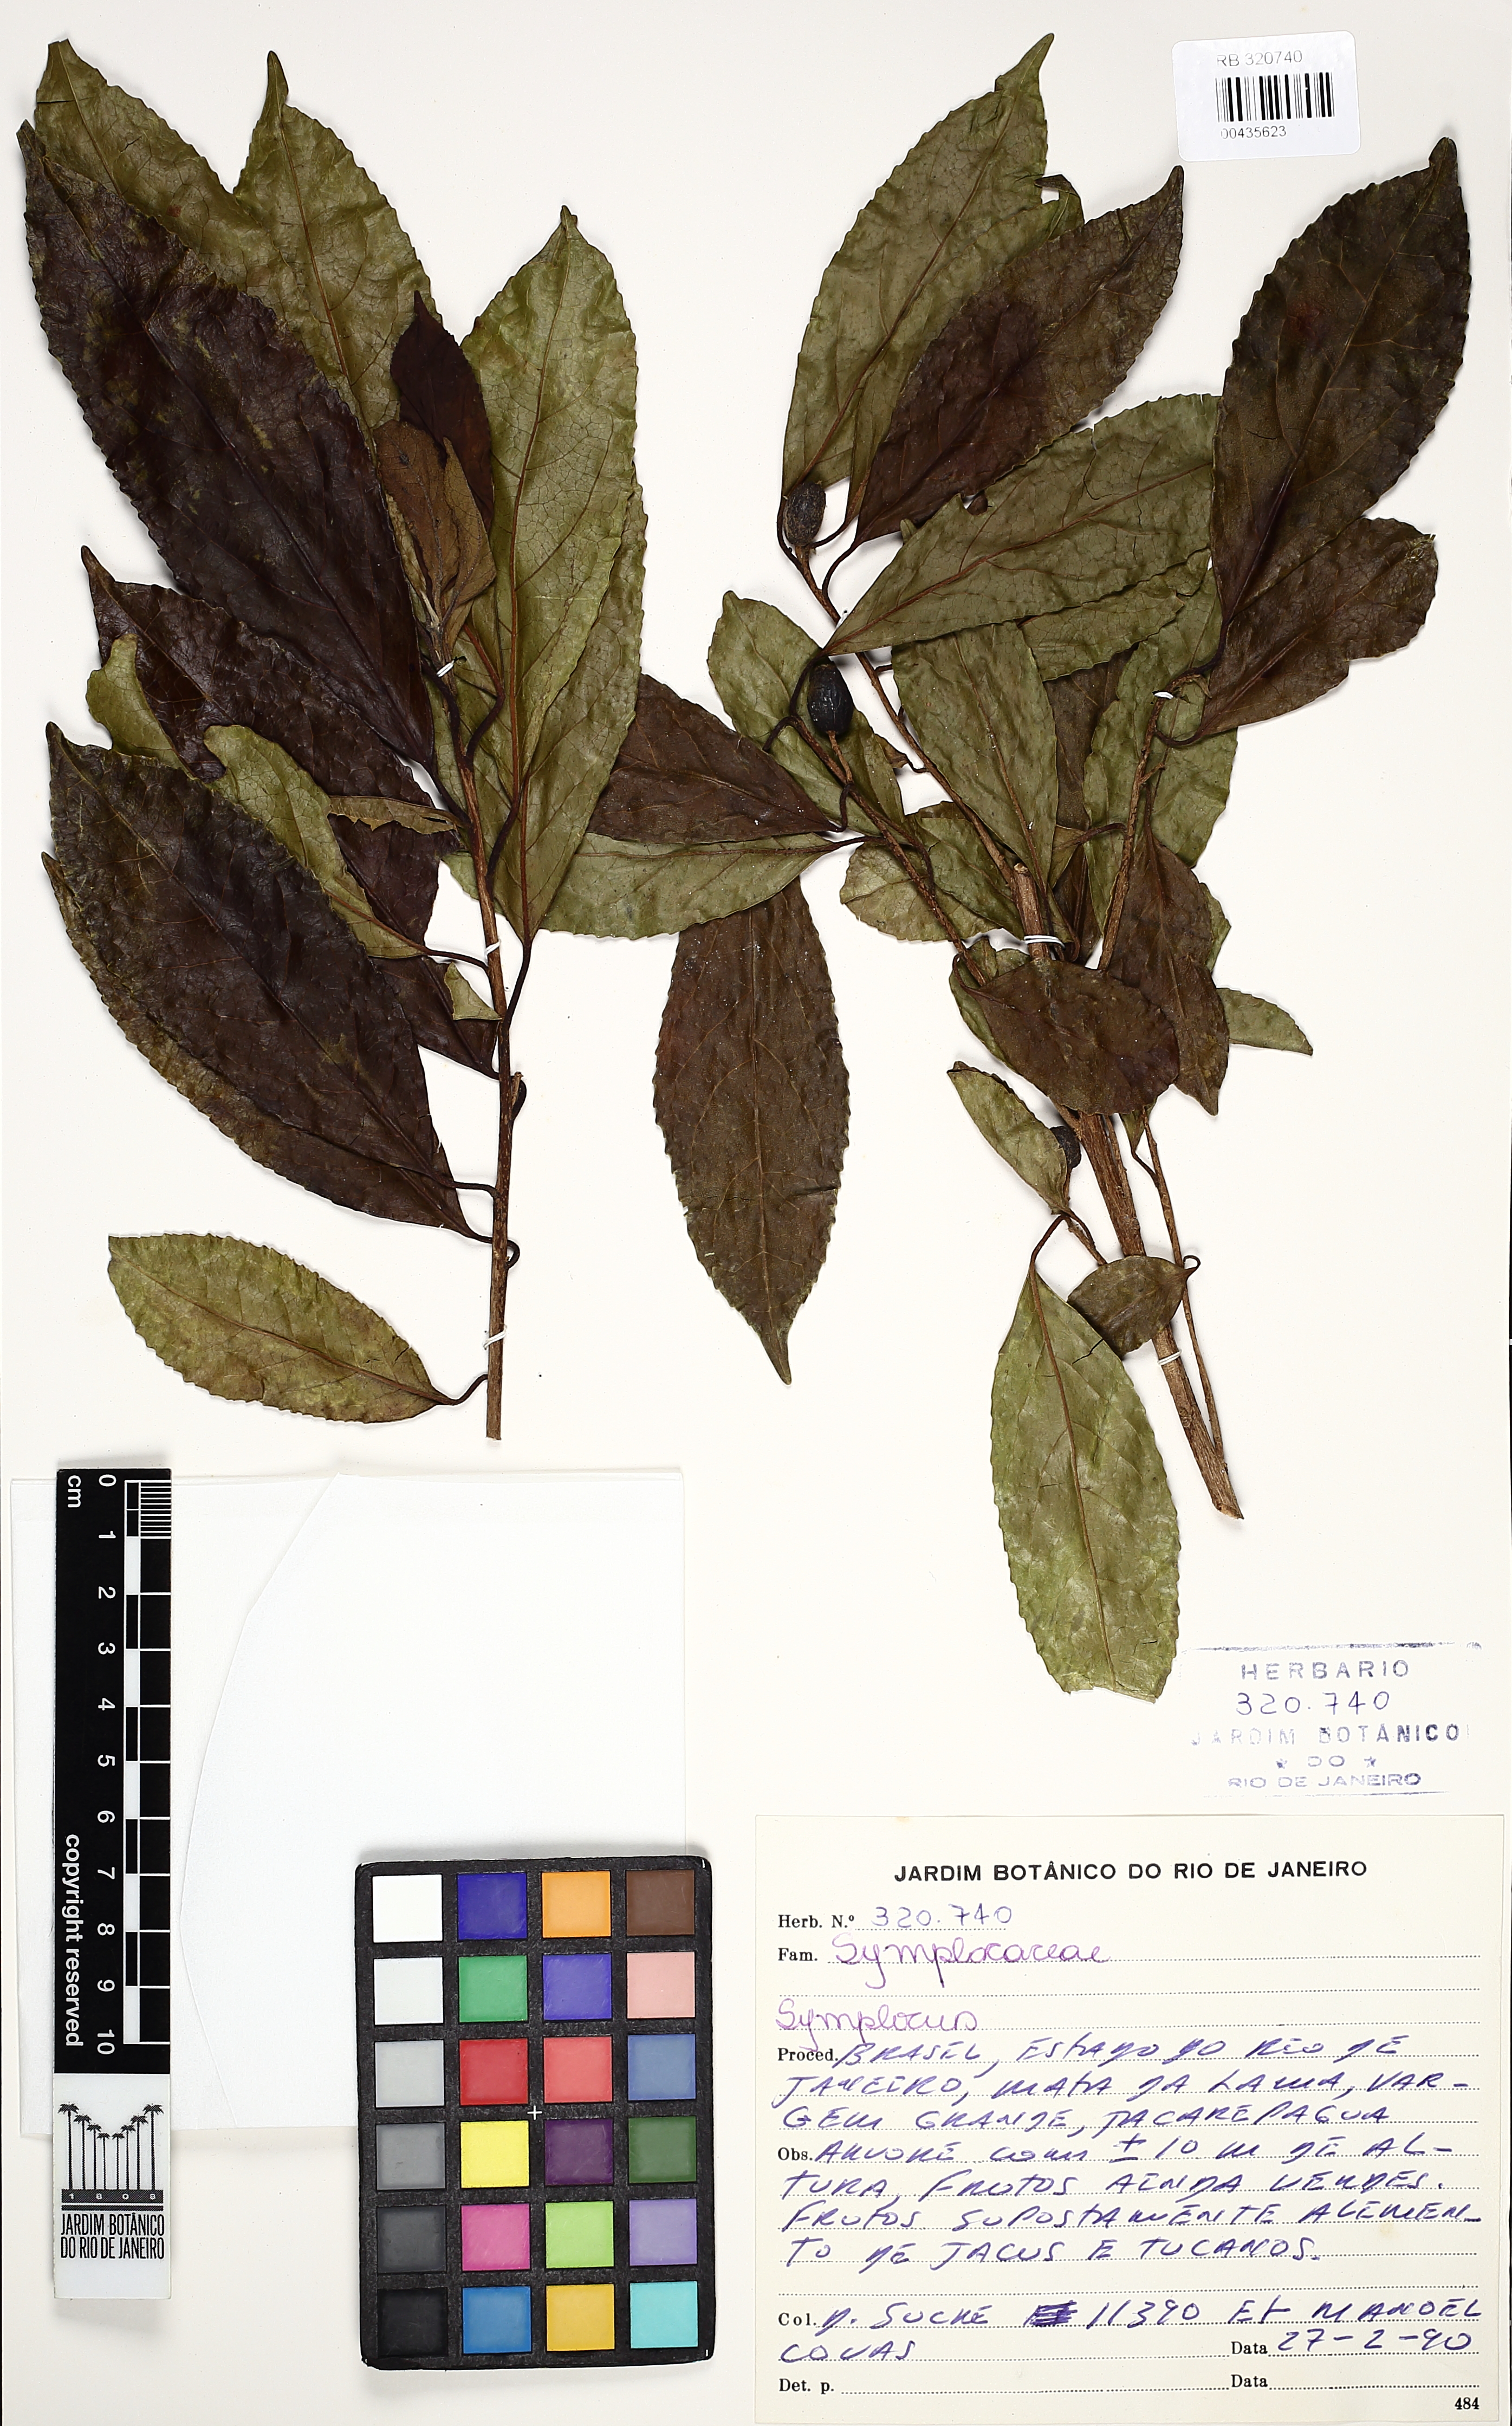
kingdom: Plantae
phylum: Tracheophyta
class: Magnoliopsida
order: Ericales
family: Symplocaceae
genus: Symplocos
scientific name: Symplocos
